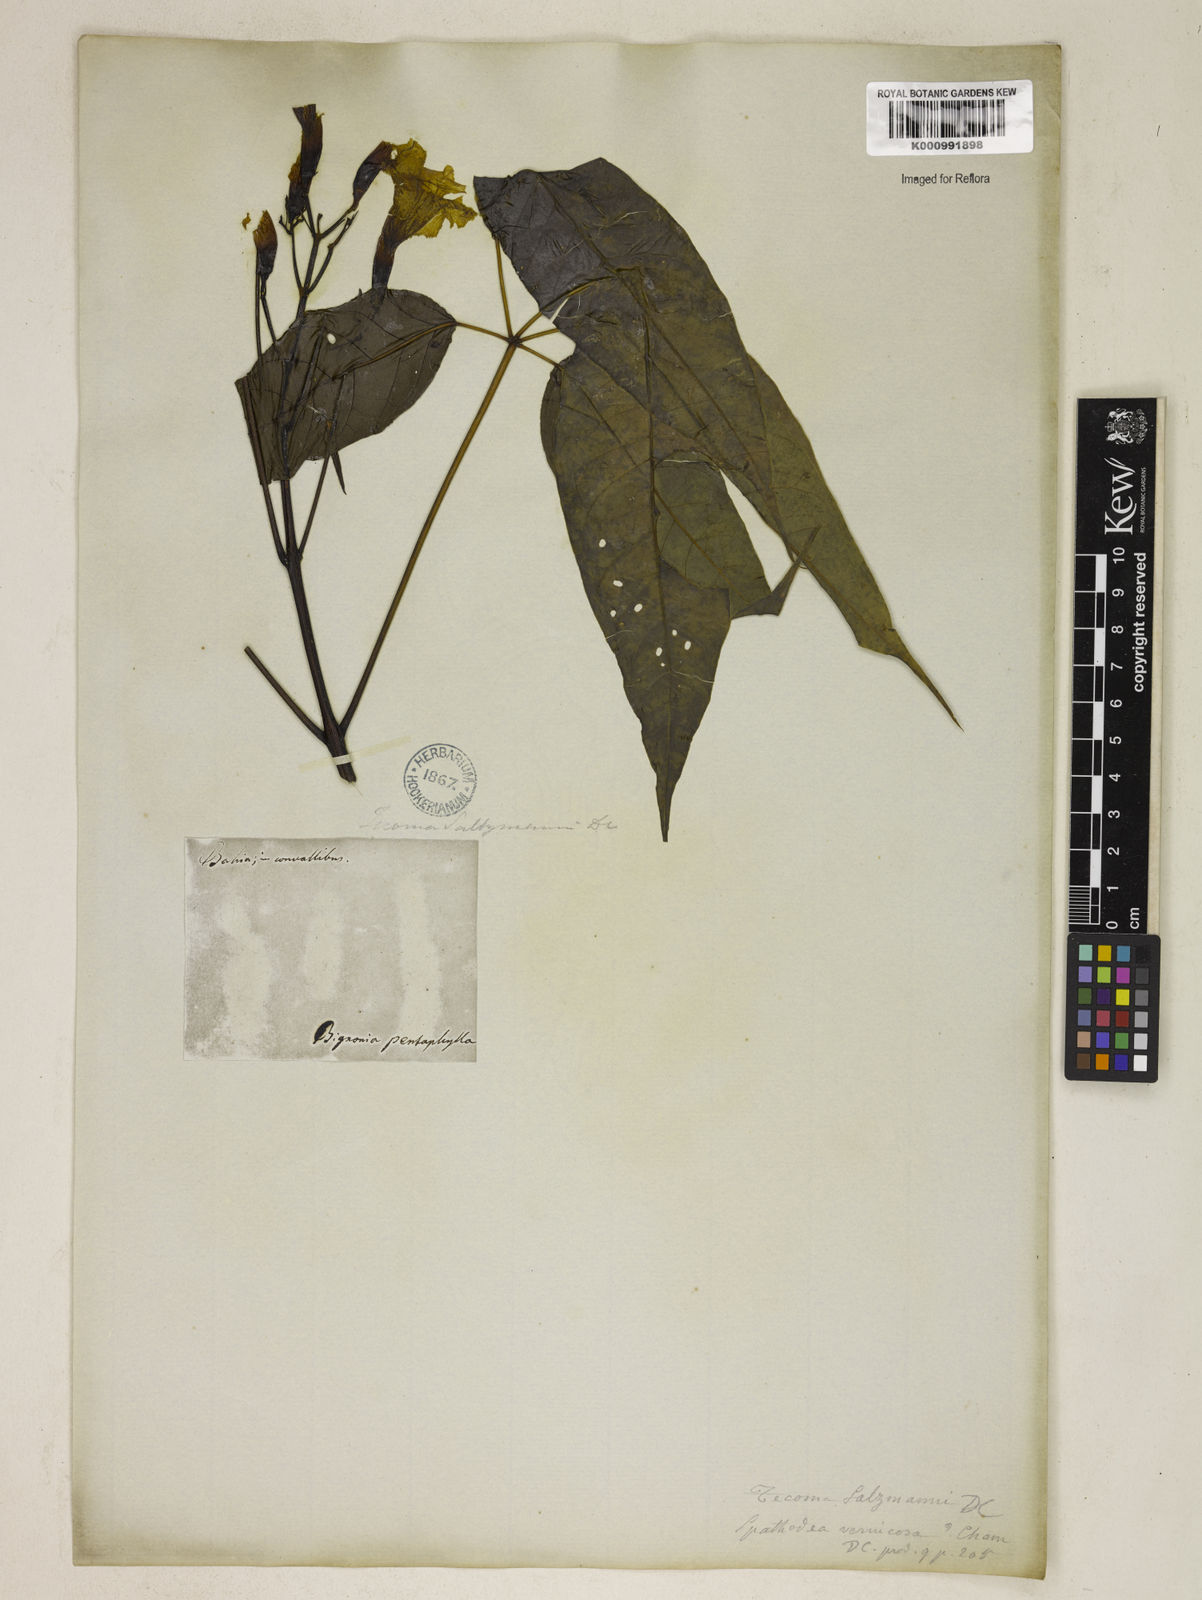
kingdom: Plantae
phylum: Tracheophyta
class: Magnoliopsida
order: Lamiales
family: Bignoniaceae
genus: Sparattosperma
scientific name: Sparattosperma leucanthum
